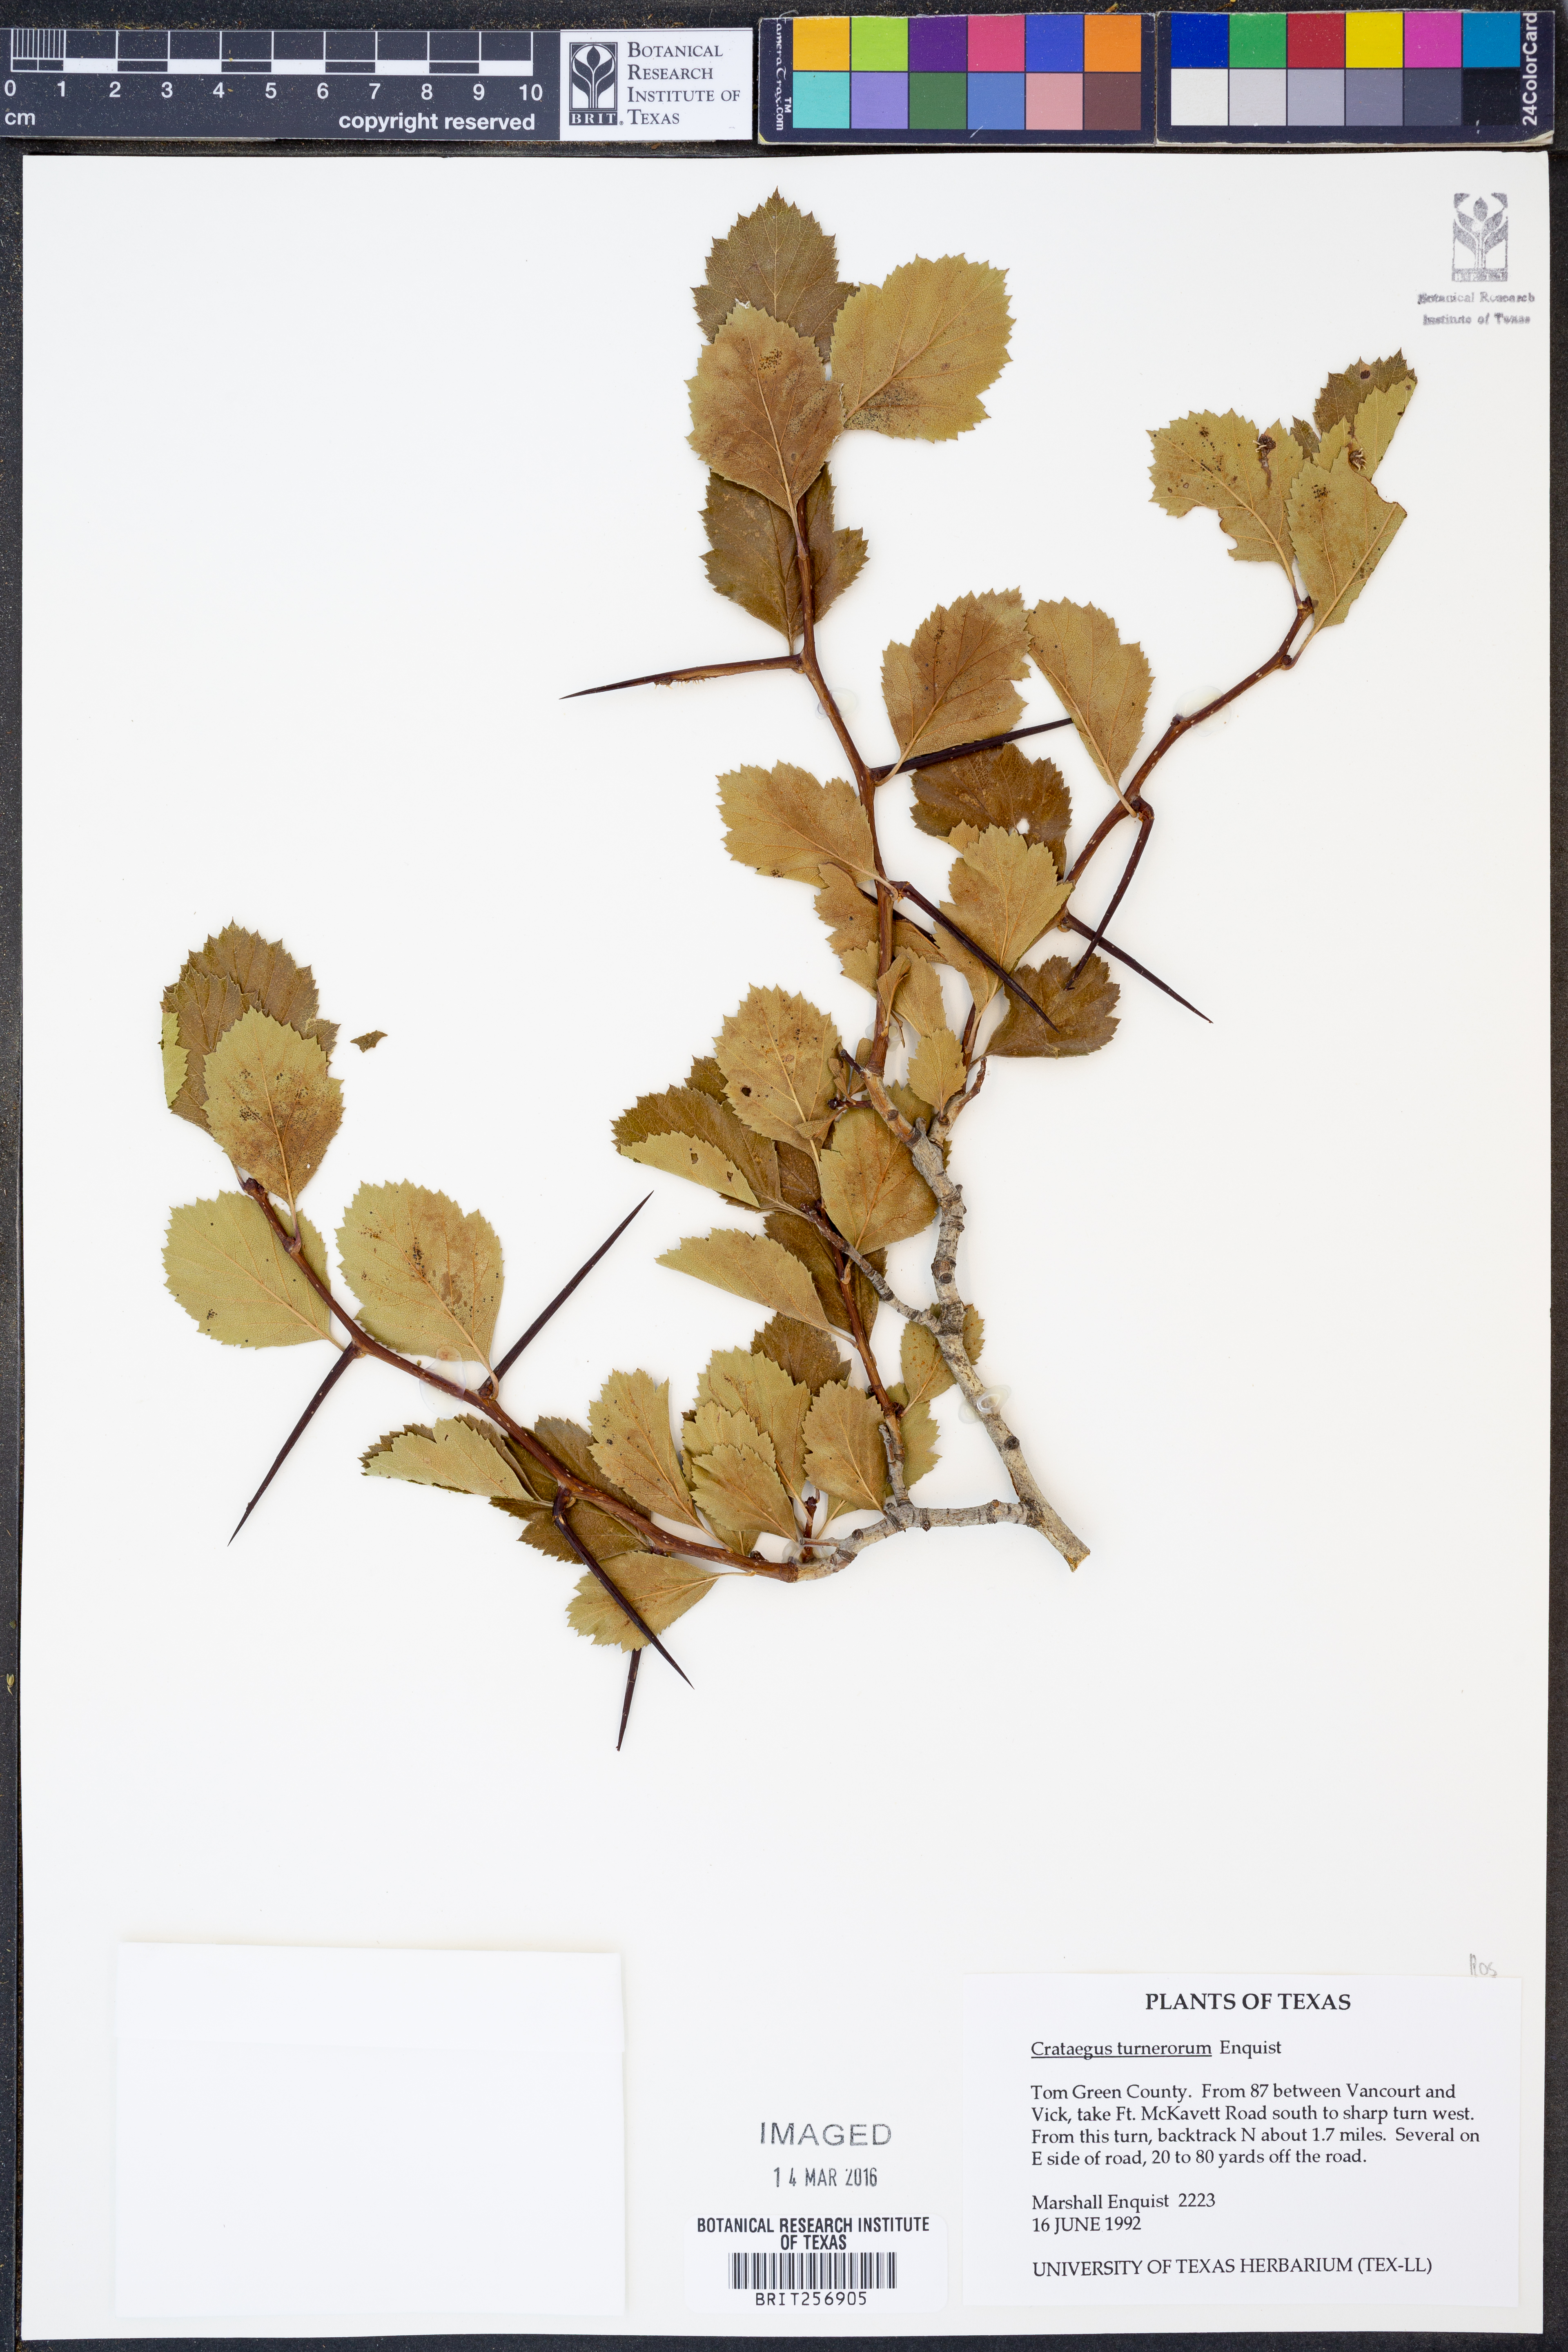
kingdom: Plantae
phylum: Tracheophyta
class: Magnoliopsida
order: Rosales
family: Rosaceae
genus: Crataegus
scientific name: Crataegus turnerorum
